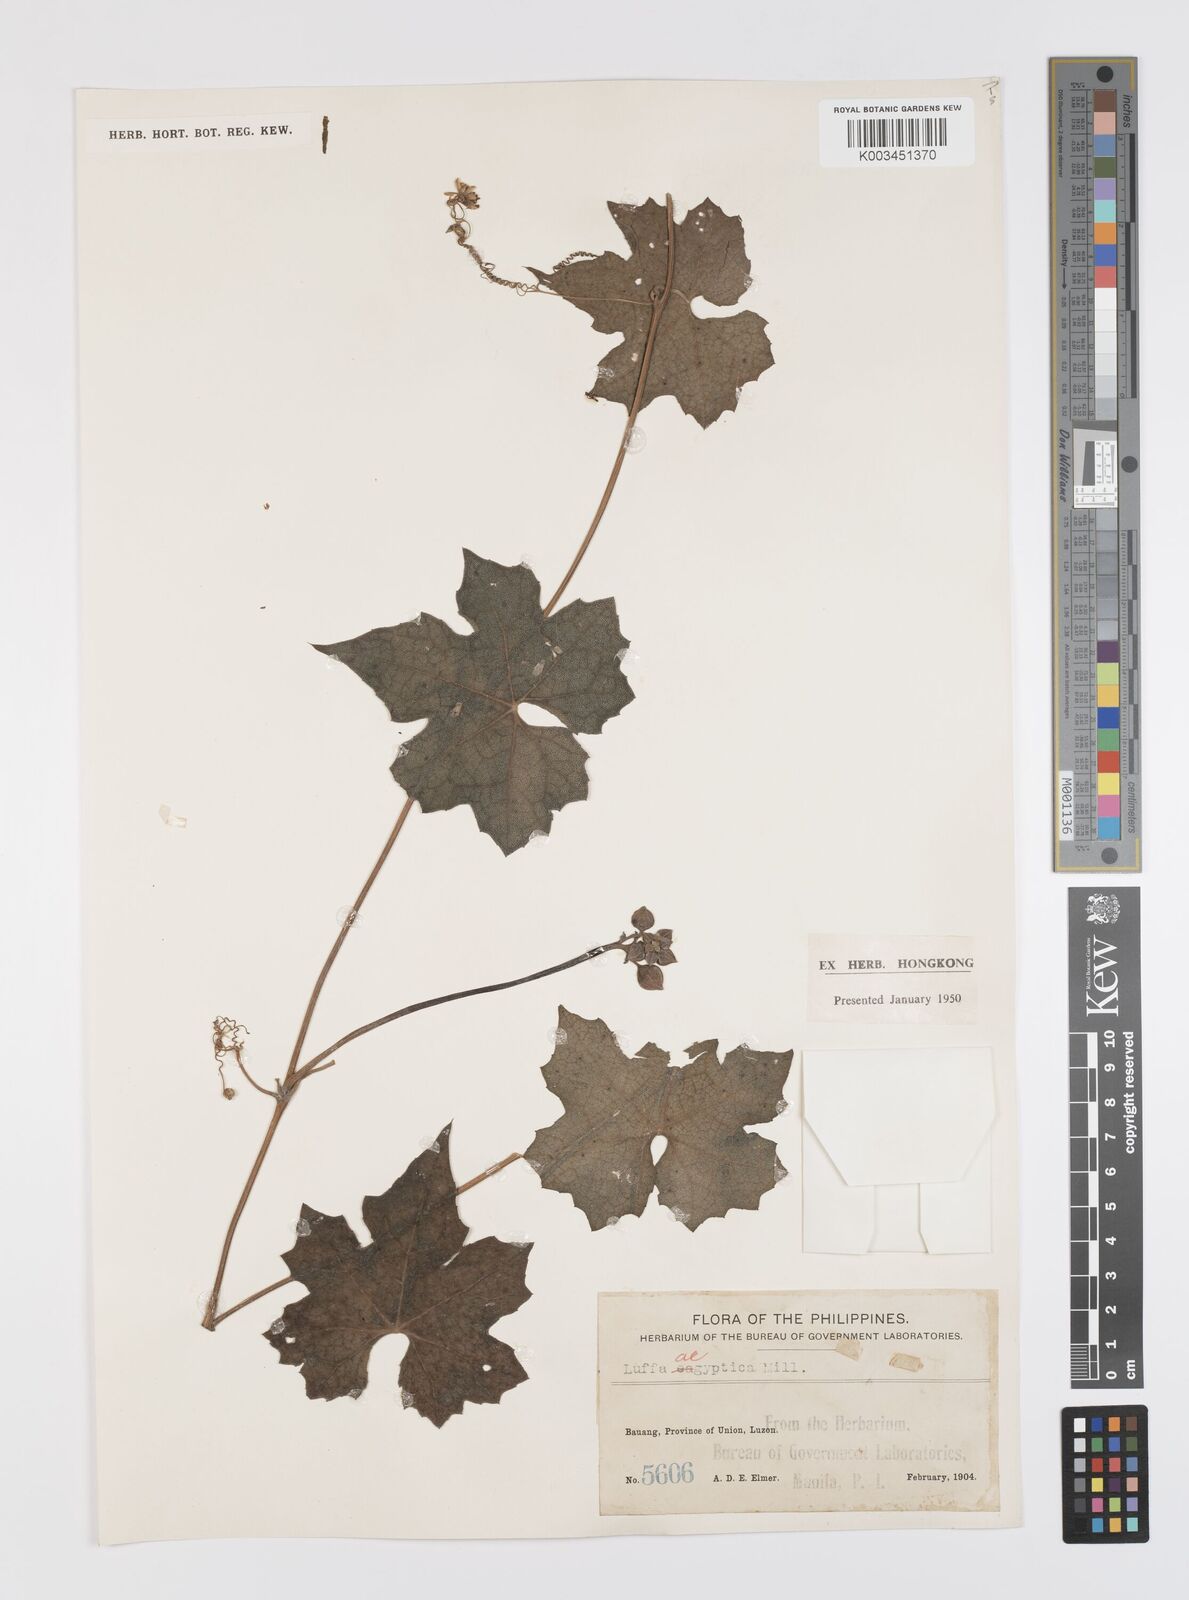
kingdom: Plantae
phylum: Tracheophyta
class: Magnoliopsida
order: Cucurbitales
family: Cucurbitaceae
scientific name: Cucurbitaceae
